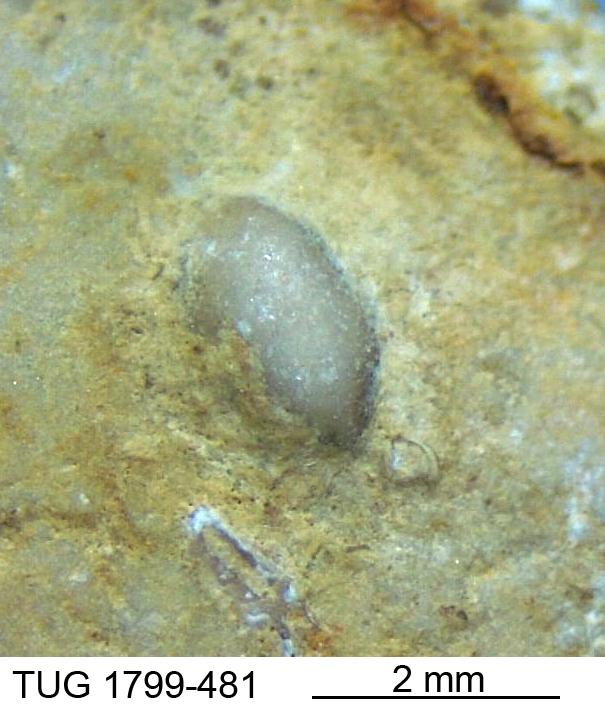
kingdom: Animalia
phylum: Brachiopoda
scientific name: Brachiopoda
